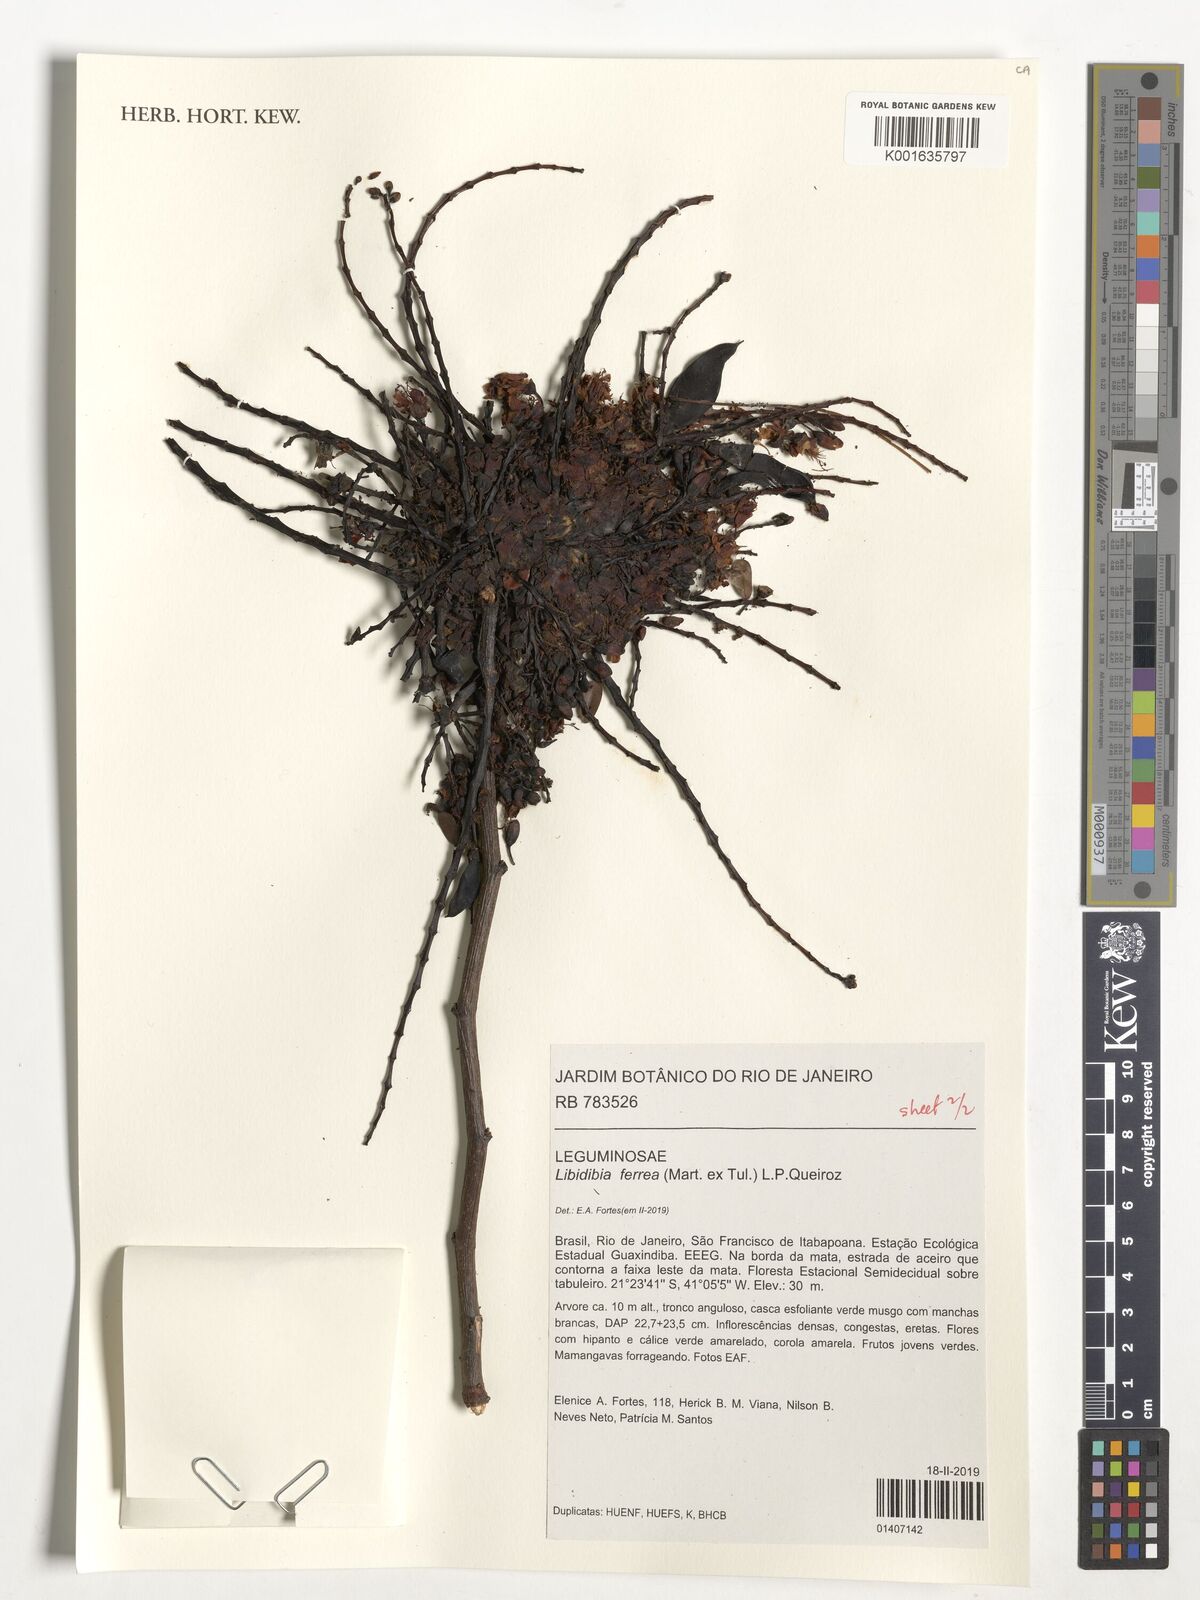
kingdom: Plantae
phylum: Tracheophyta
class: Magnoliopsida
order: Fabales
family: Fabaceae
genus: Libidibia
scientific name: Libidibia ferrea
